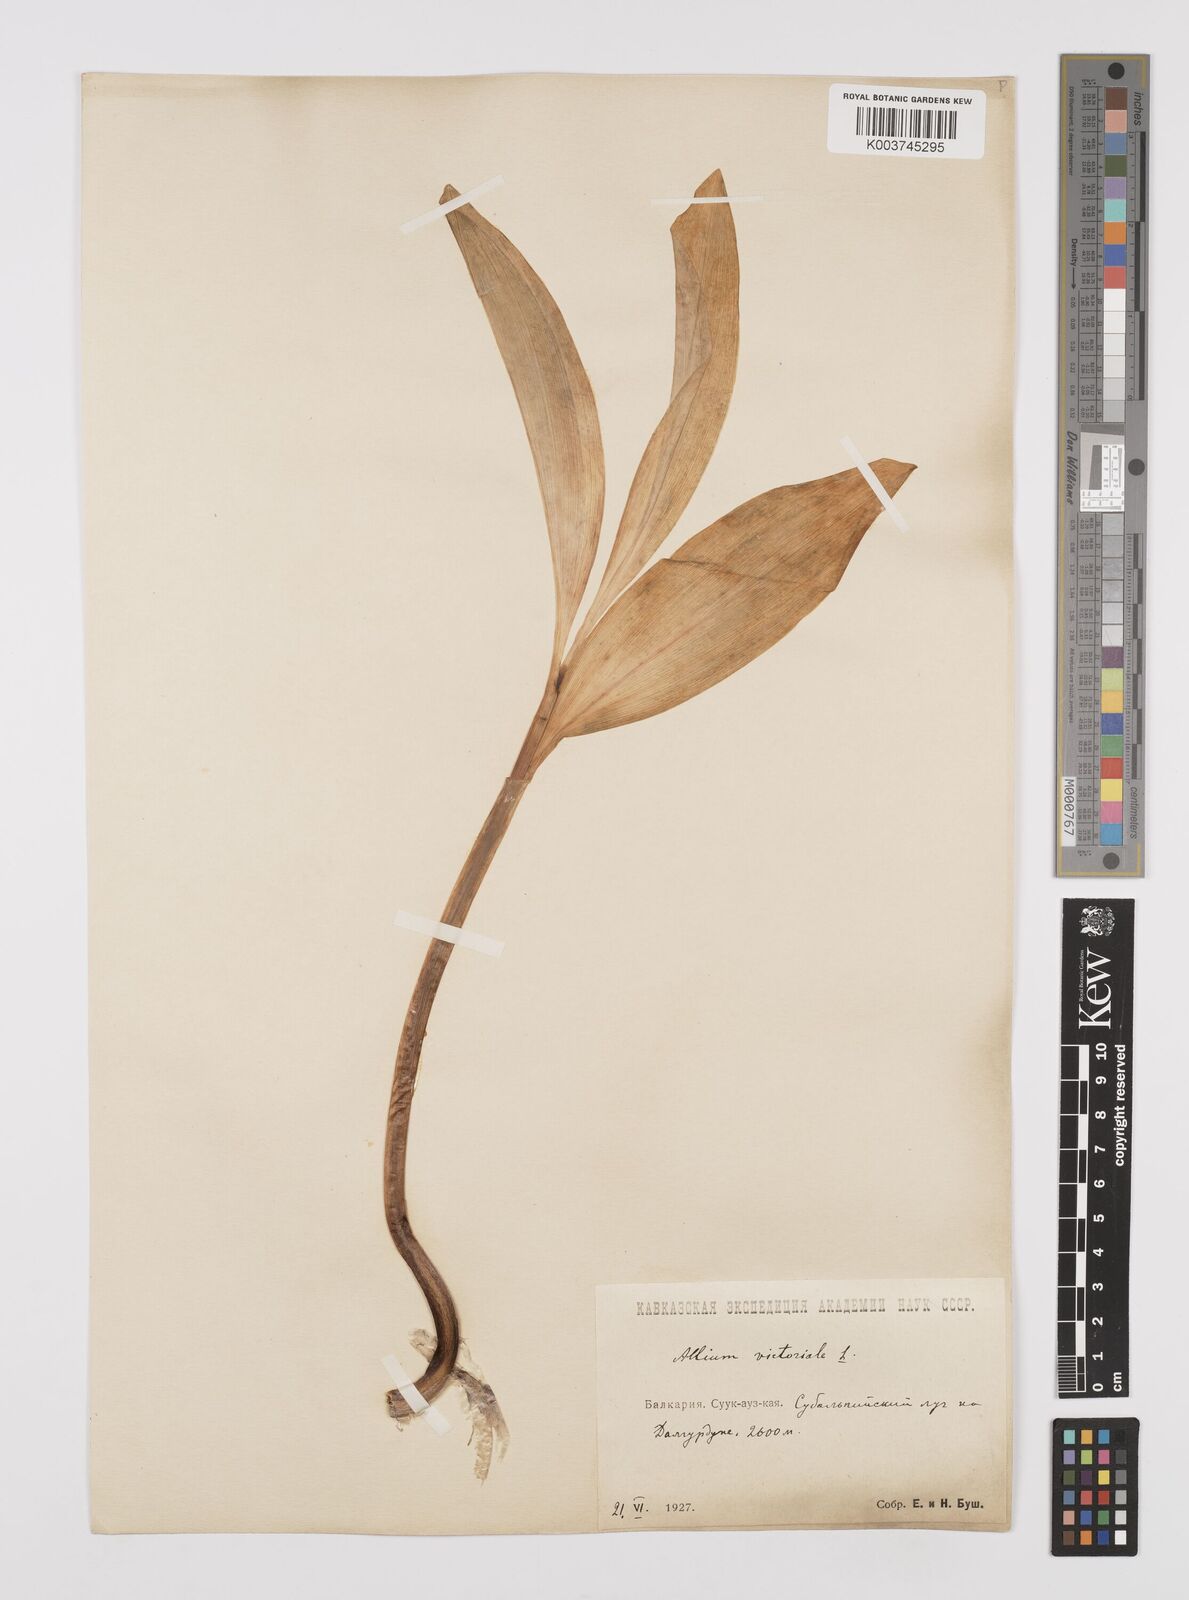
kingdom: Plantae
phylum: Tracheophyta
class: Liliopsida
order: Asparagales
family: Amaryllidaceae
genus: Allium
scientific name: Allium victorialis
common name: Alpine leek
